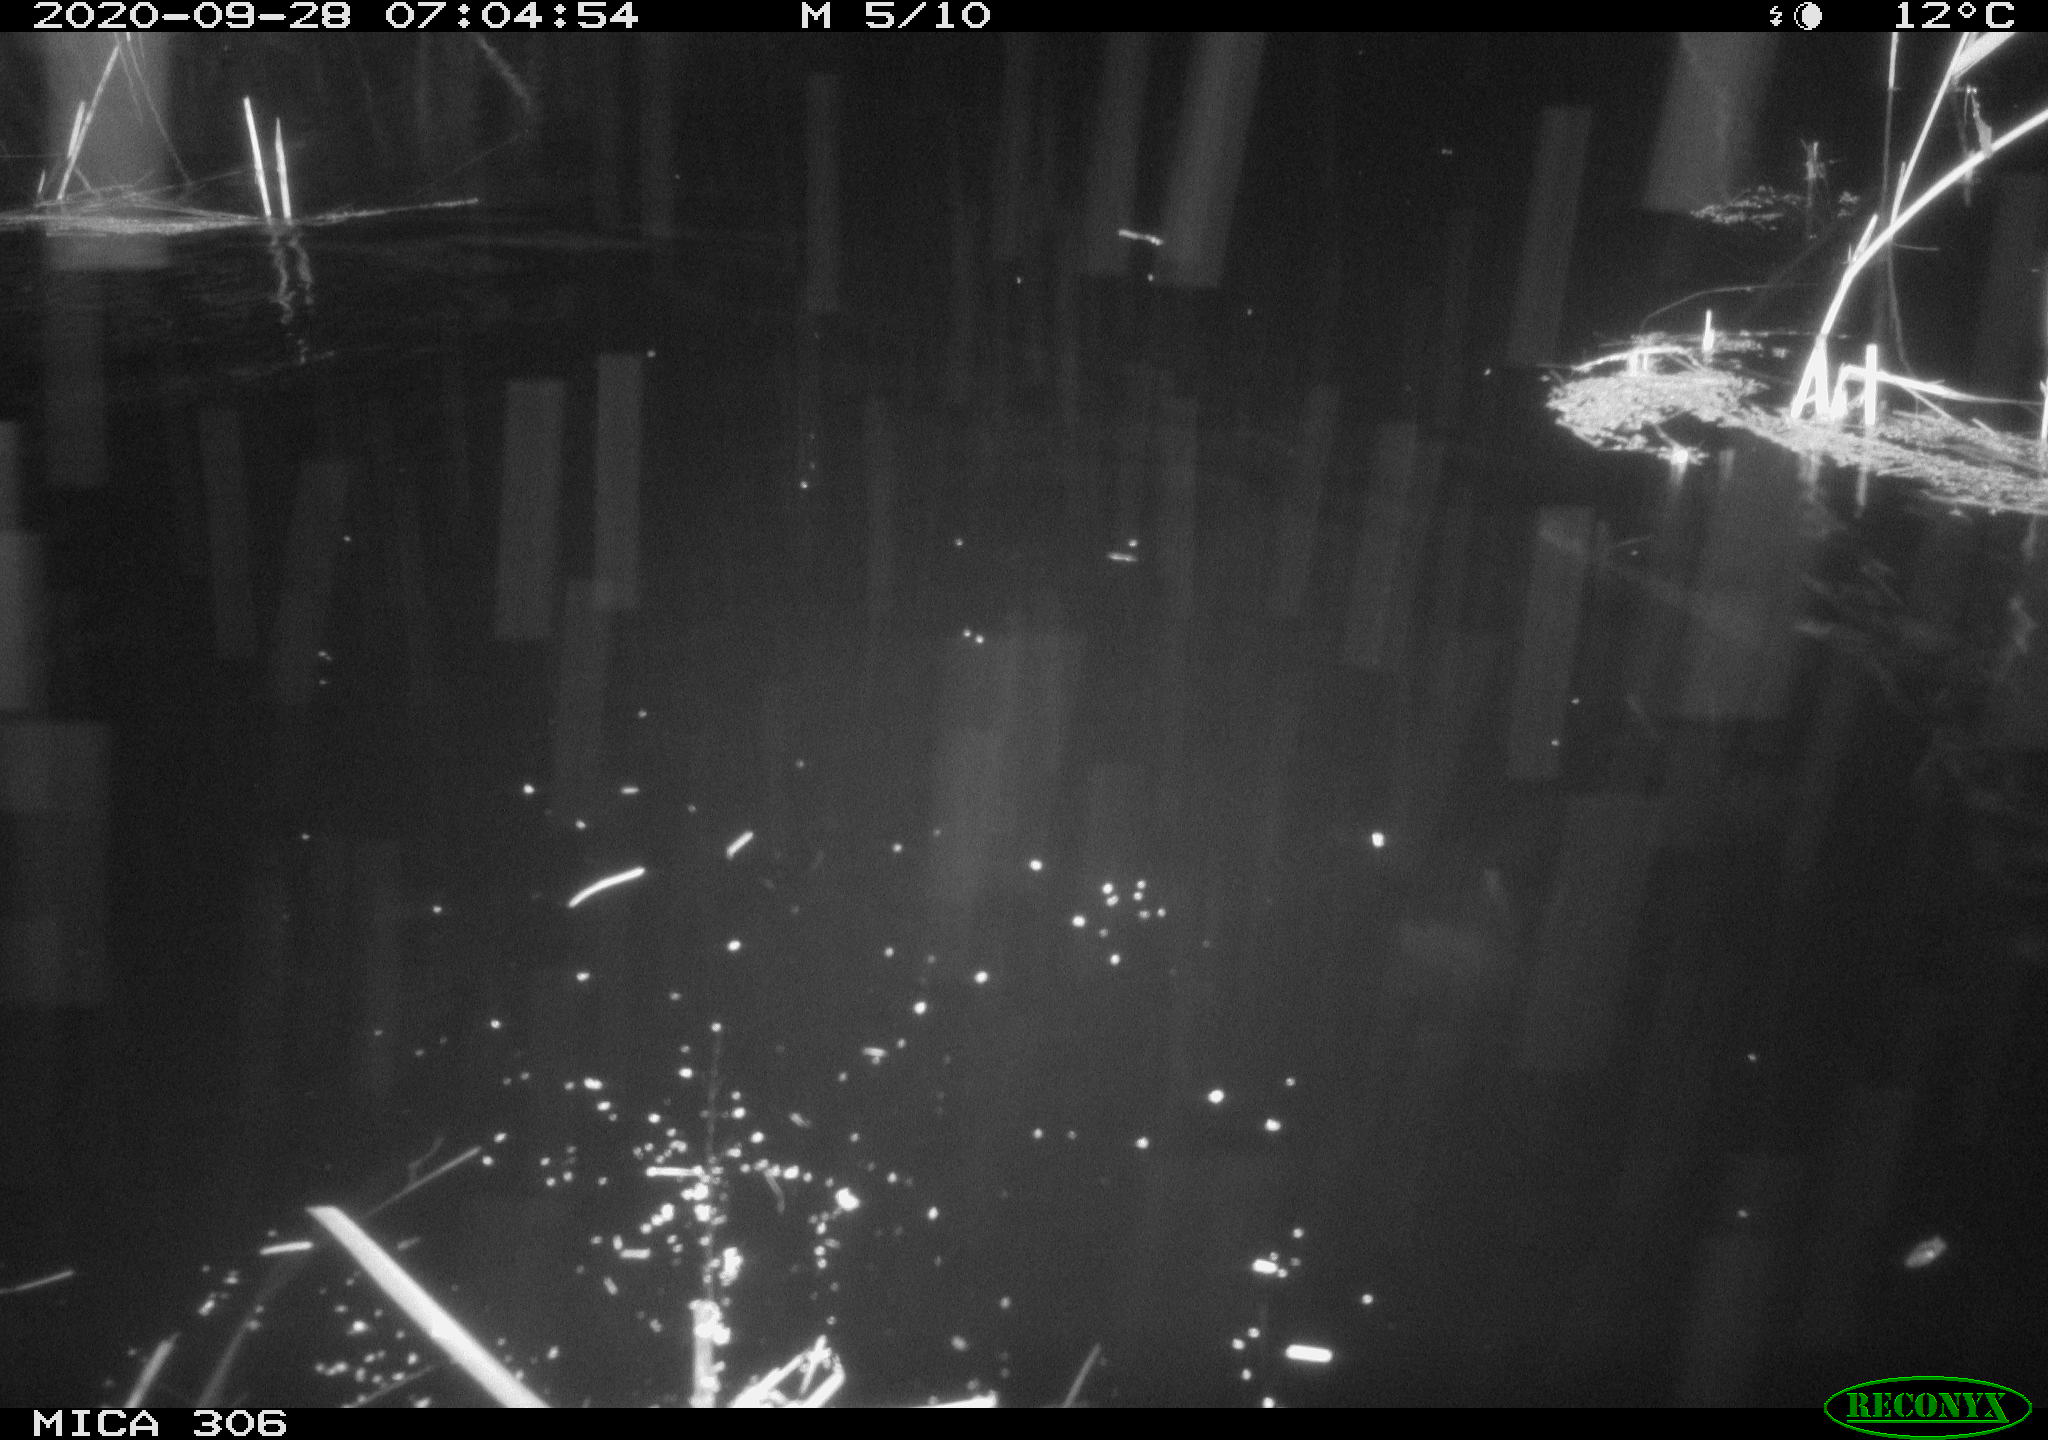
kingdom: Animalia
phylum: Chordata
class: Mammalia
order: Rodentia
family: Muridae
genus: Rattus
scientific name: Rattus norvegicus
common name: Brown rat
